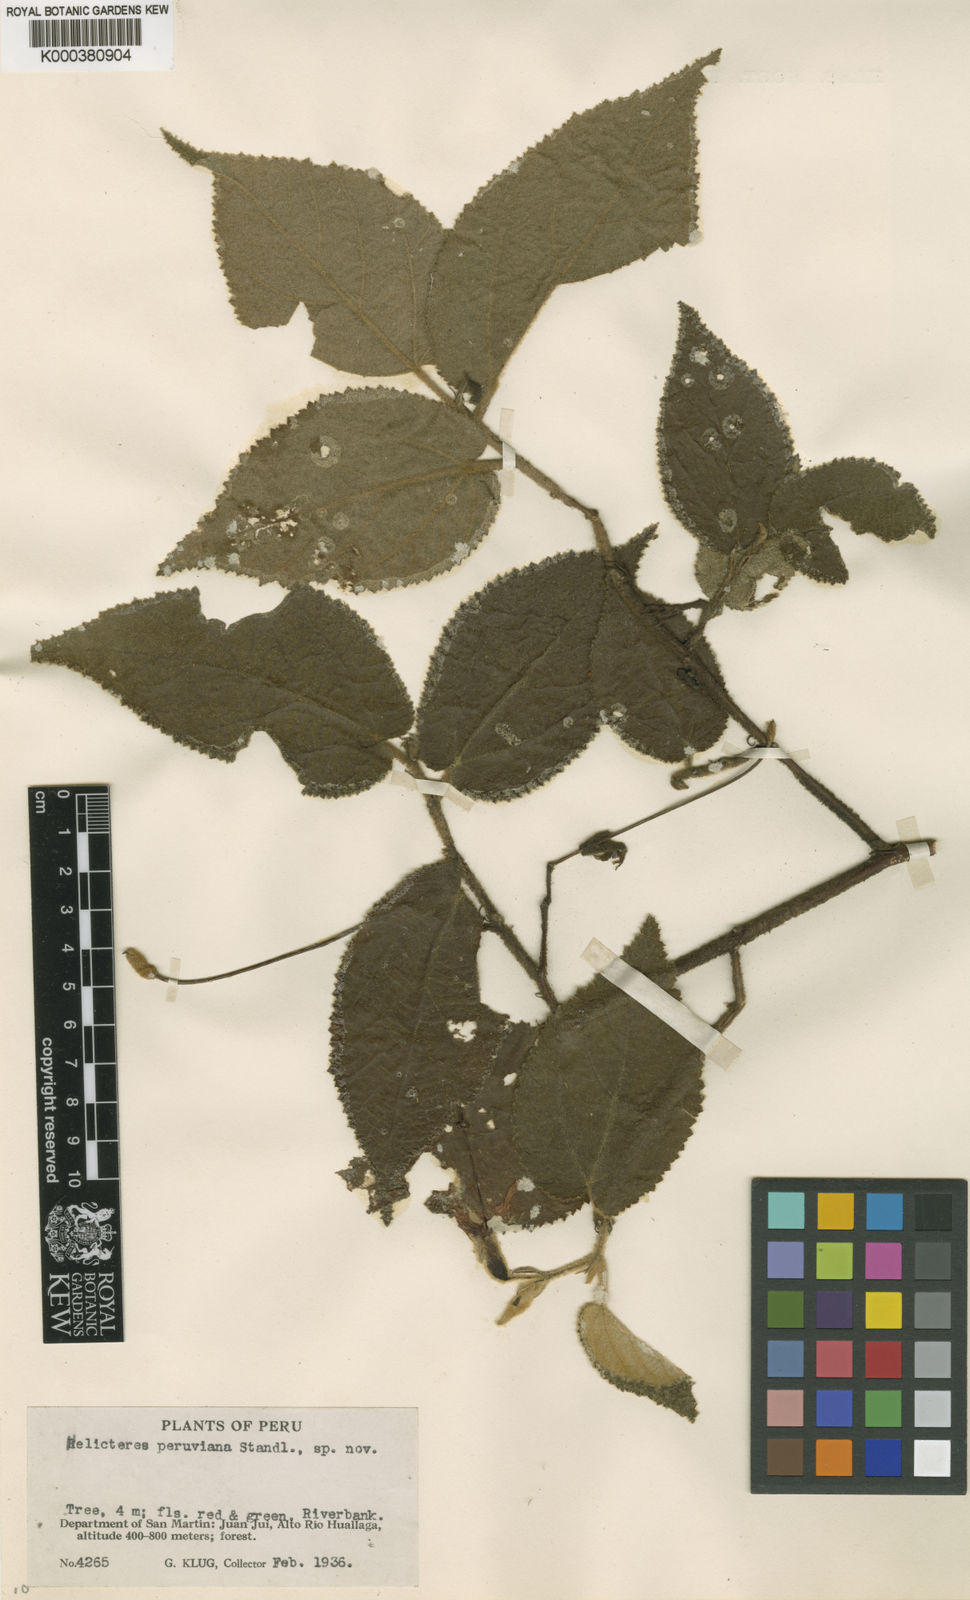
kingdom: Plantae
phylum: Tracheophyta
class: Magnoliopsida
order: Malvales
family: Malvaceae
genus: Helicteres
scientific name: Helicteres
